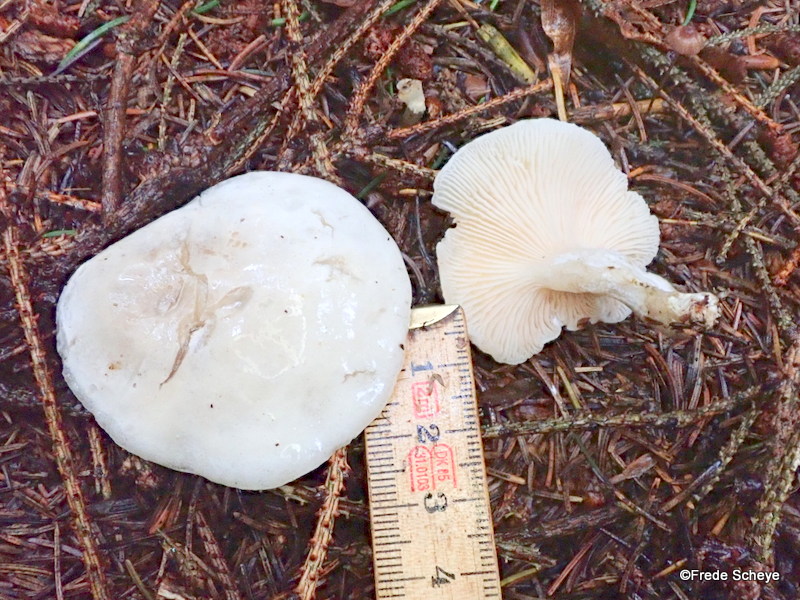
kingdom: Fungi
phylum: Basidiomycota
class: Agaricomycetes
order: Agaricales
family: Entolomataceae
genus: Clitopilus
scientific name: Clitopilus prunulus
